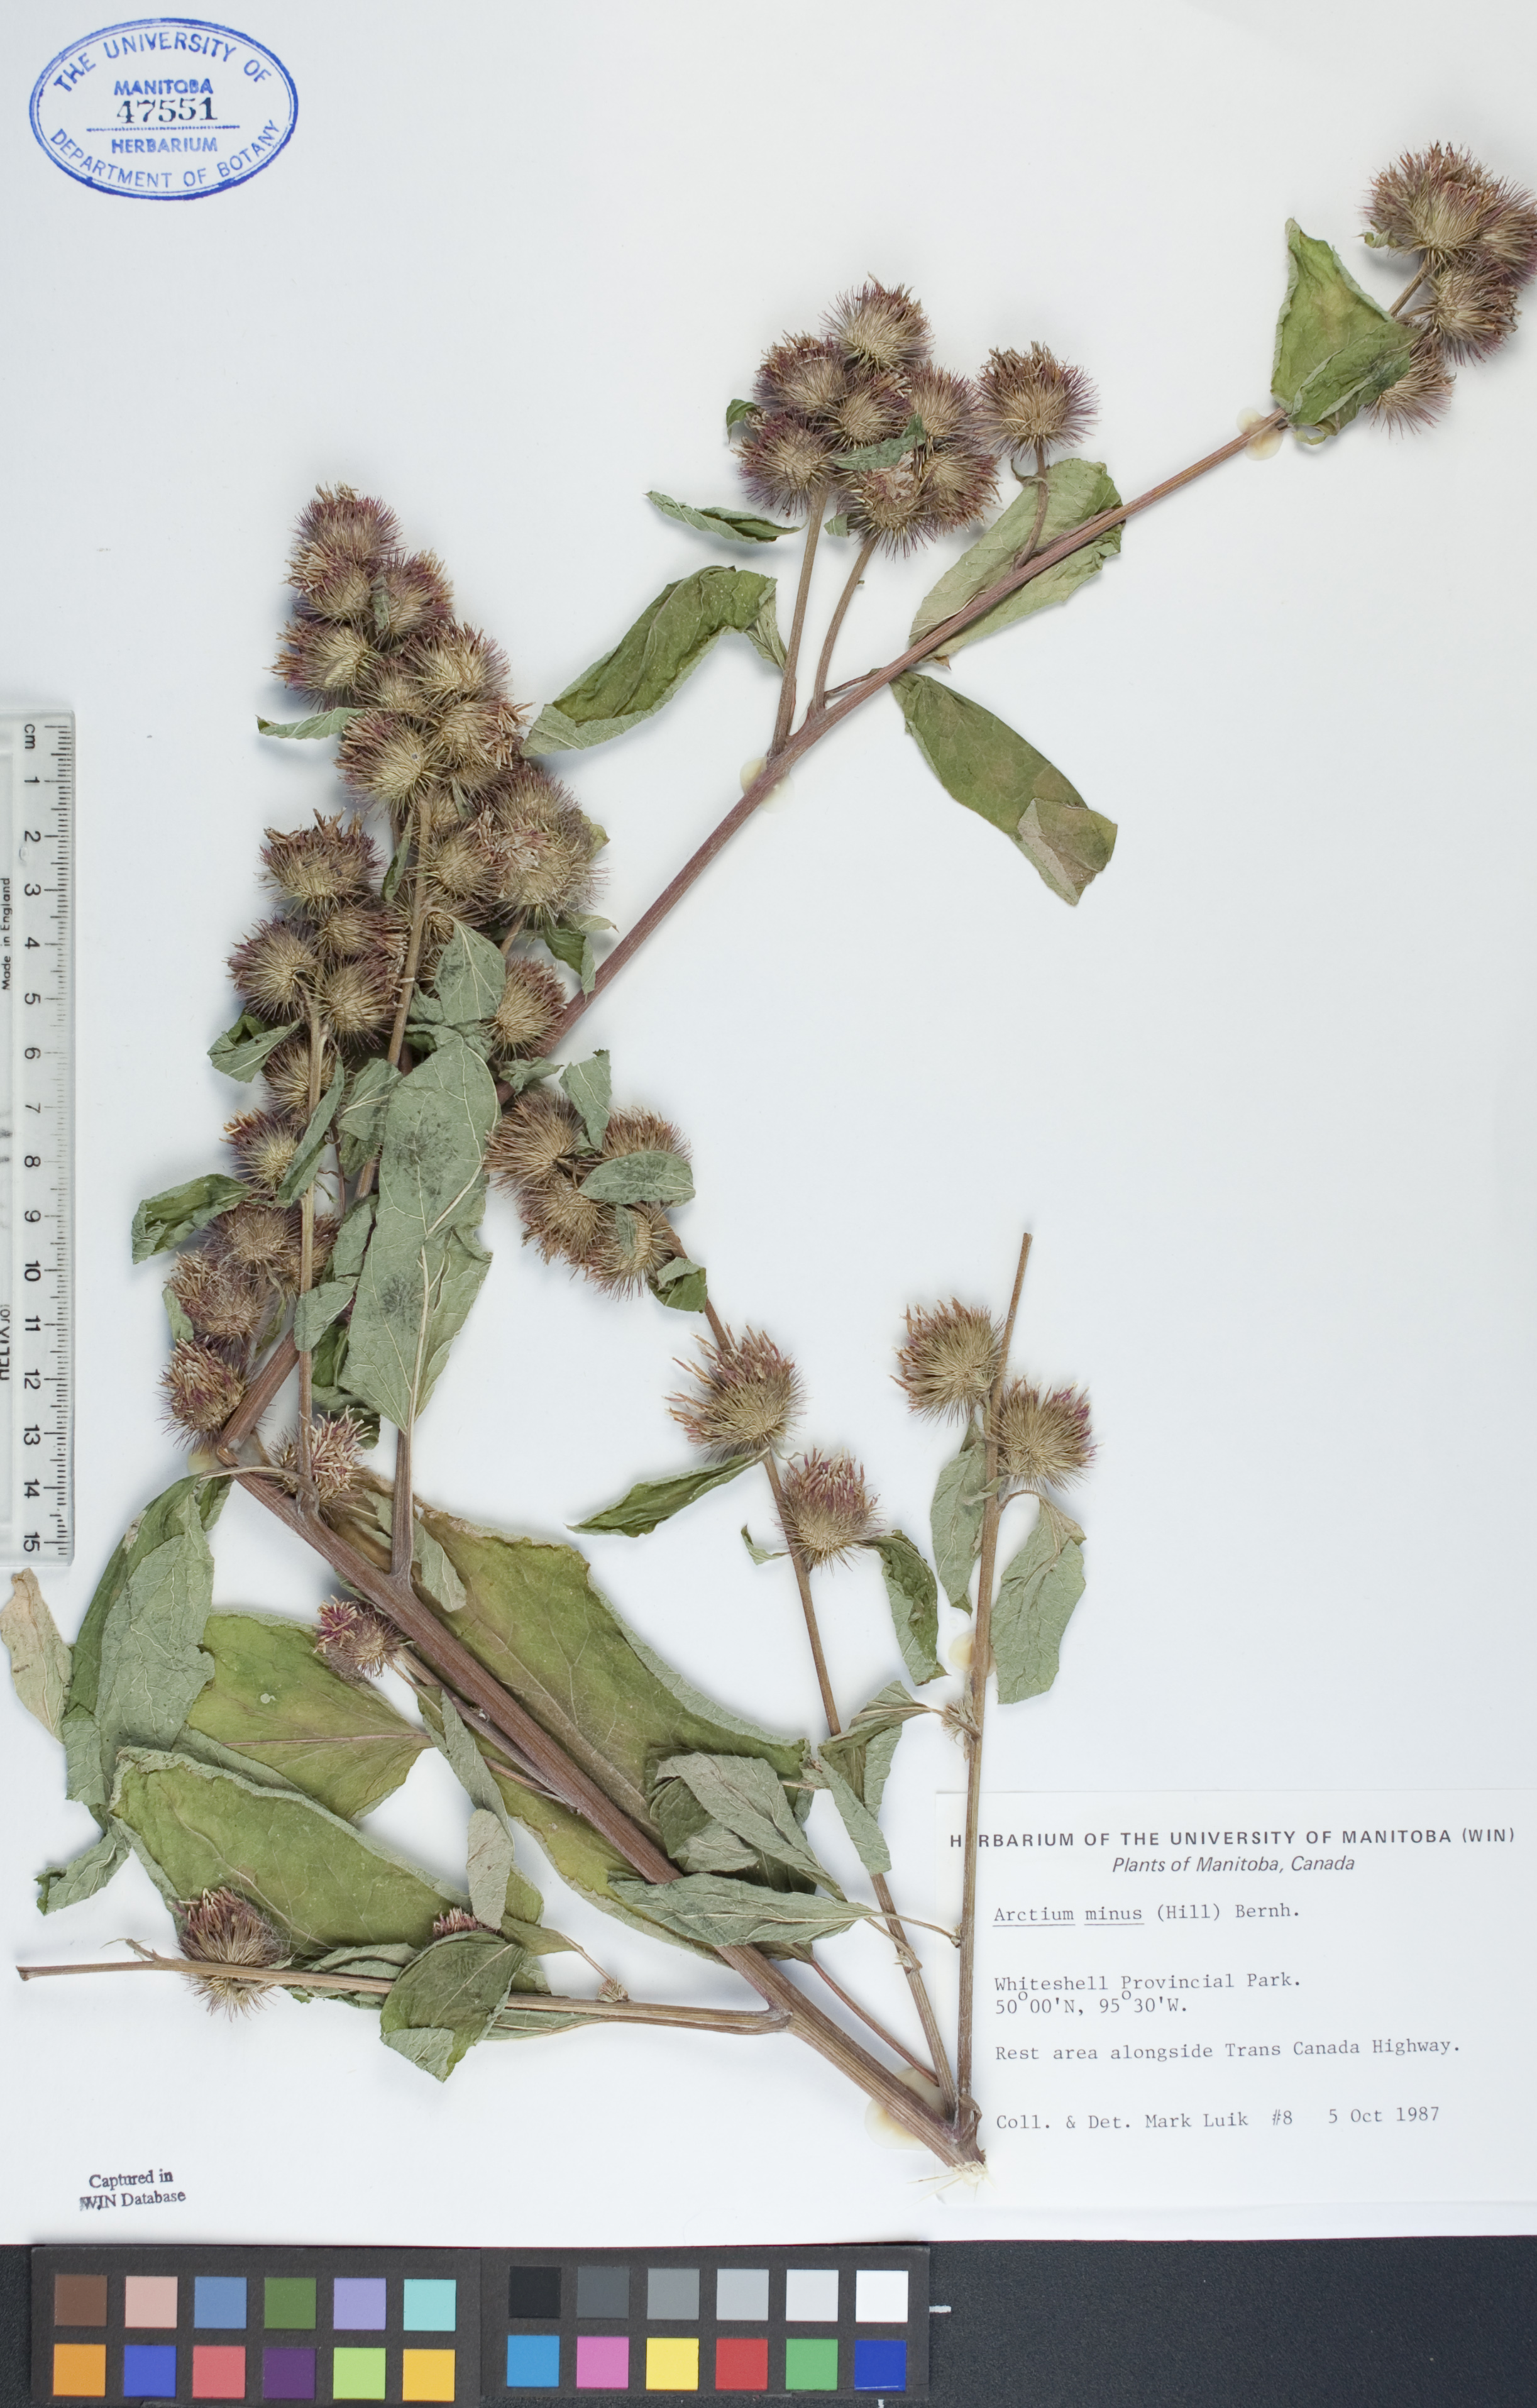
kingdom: Plantae
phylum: Tracheophyta
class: Magnoliopsida
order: Asterales
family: Asteraceae
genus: Arctium
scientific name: Arctium minus
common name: Lesser burdock
